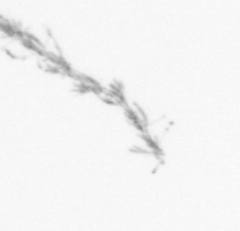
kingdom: Chromista
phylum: Ochrophyta
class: Bacillariophyceae
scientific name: Bacillariophyceae
